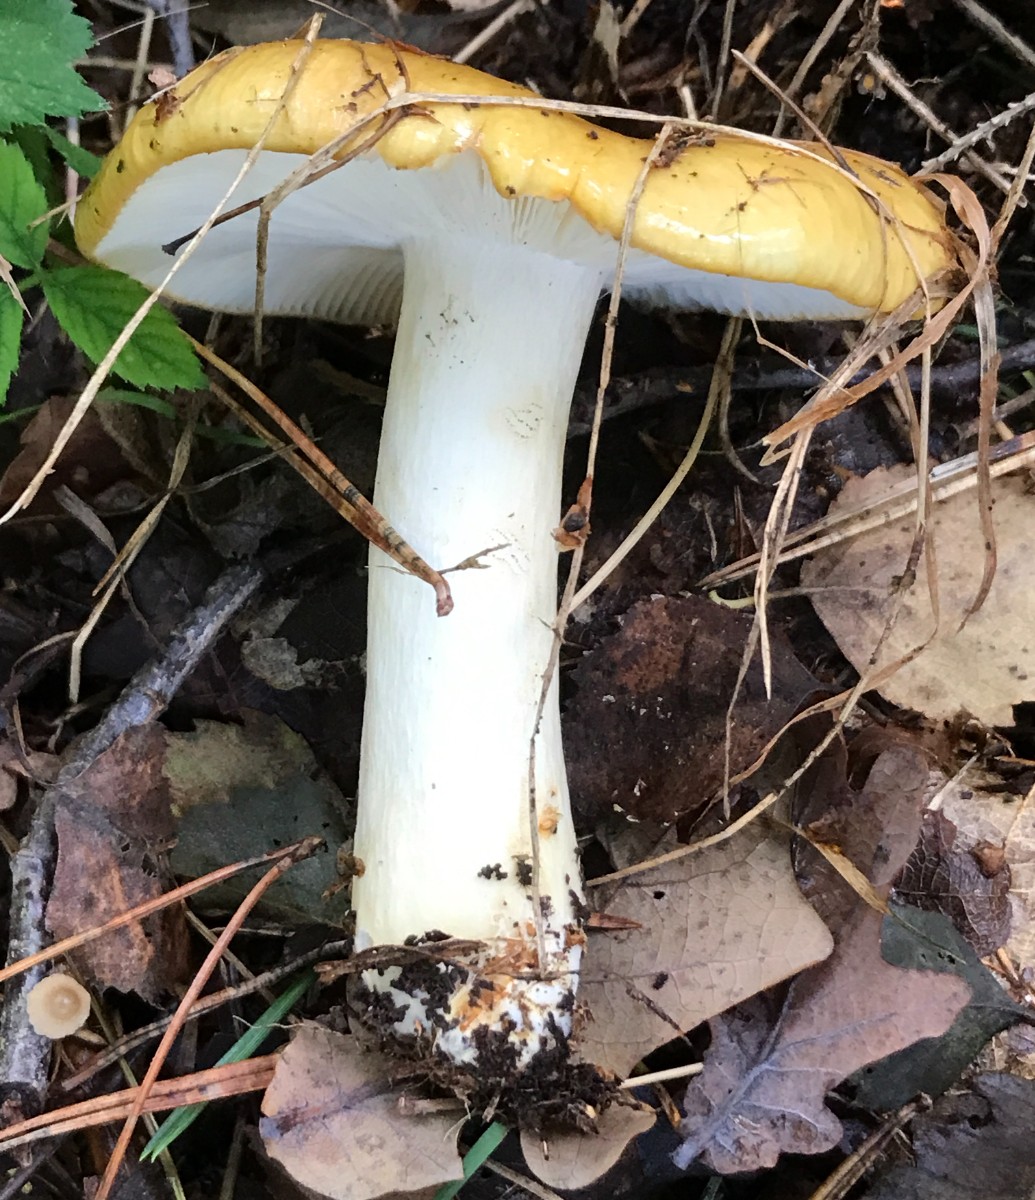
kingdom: Fungi
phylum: Basidiomycota
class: Agaricomycetes
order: Russulales
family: Russulaceae
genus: Russula
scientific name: Russula ochroleuca
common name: okkergul skørhat
